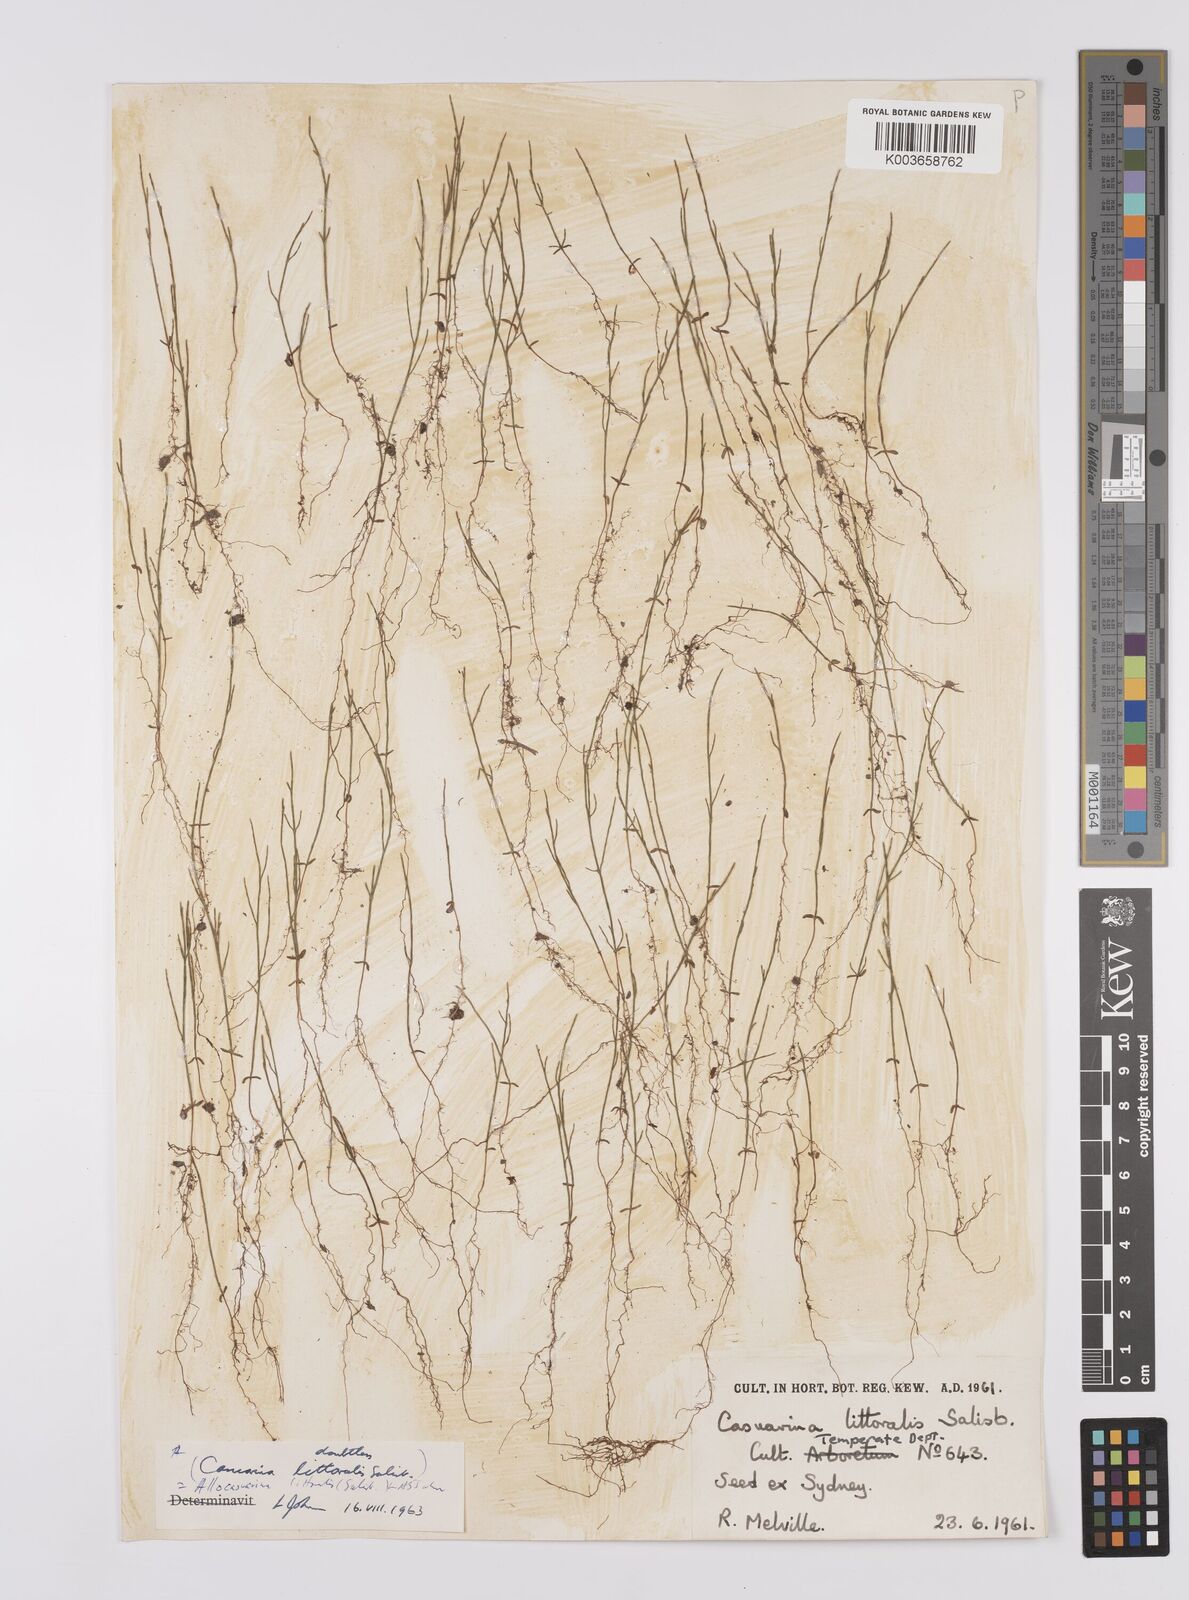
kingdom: Plantae
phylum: Tracheophyta
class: Magnoliopsida
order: Fagales
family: Casuarinaceae
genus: Allocasuarina
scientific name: Allocasuarina littoralis
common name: Black she-oak
